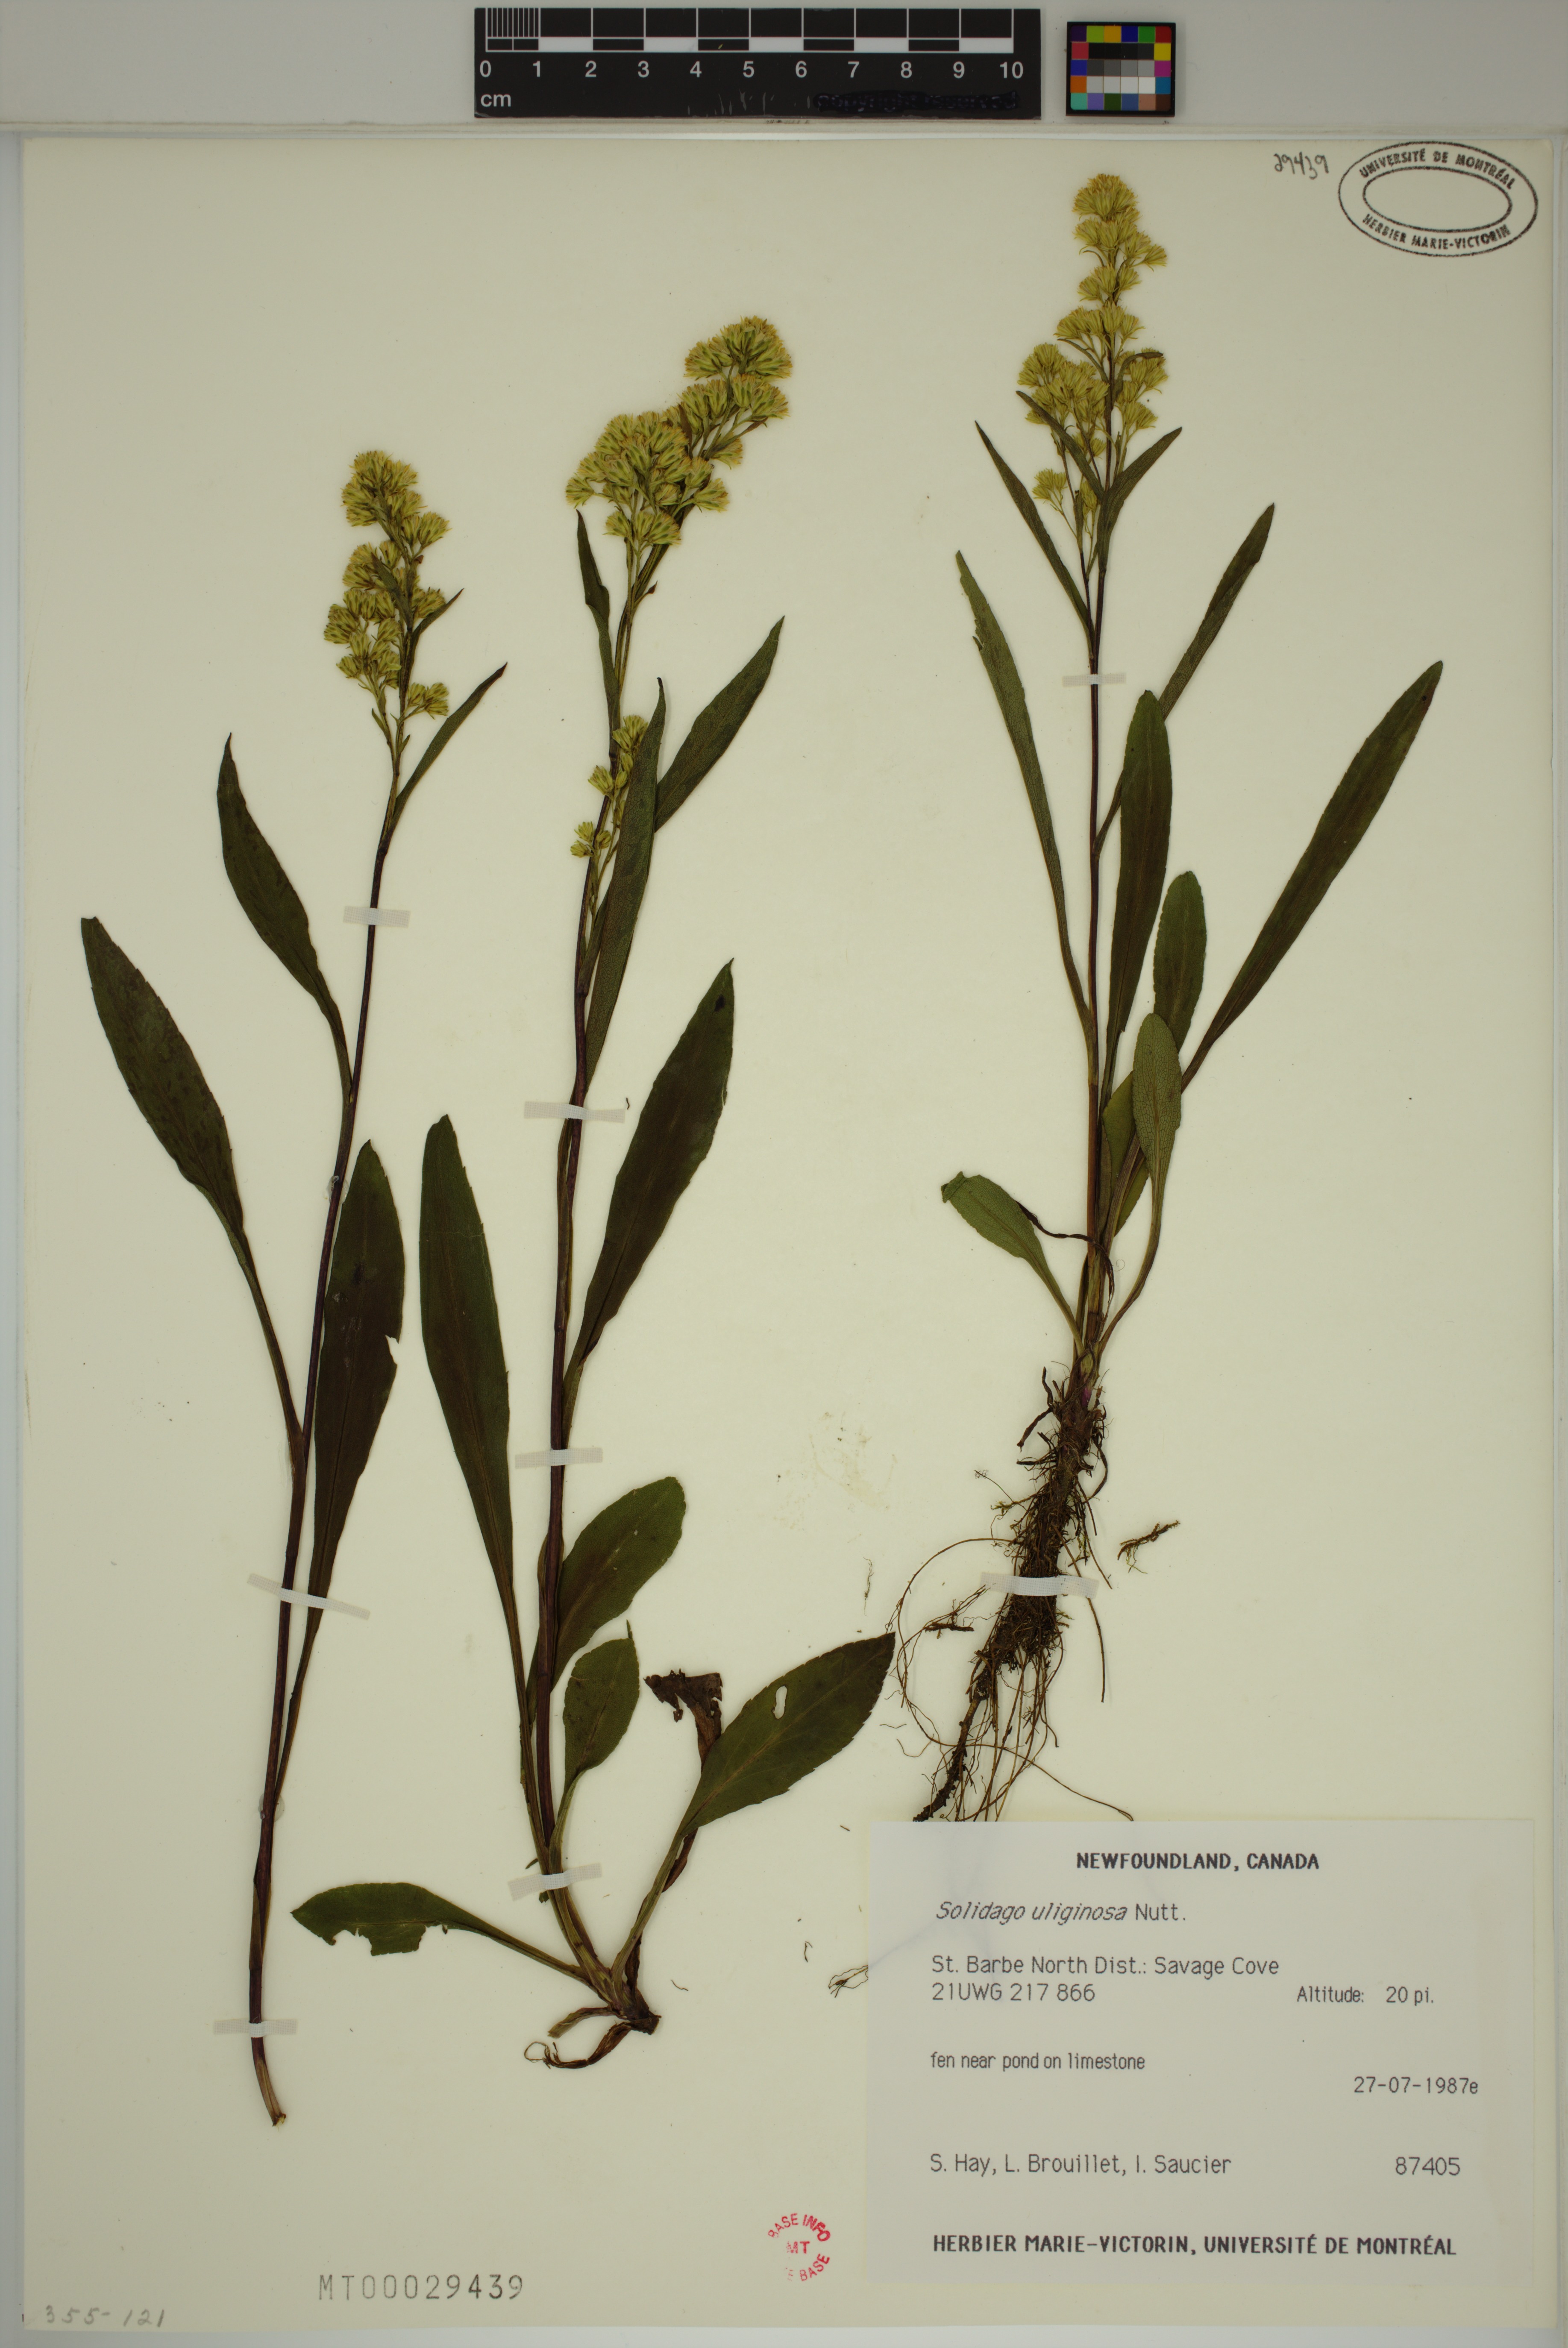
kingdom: Plantae
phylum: Tracheophyta
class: Magnoliopsida
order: Asterales
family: Asteraceae
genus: Solidago
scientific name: Solidago uliginosa
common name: Bog goldenrod
